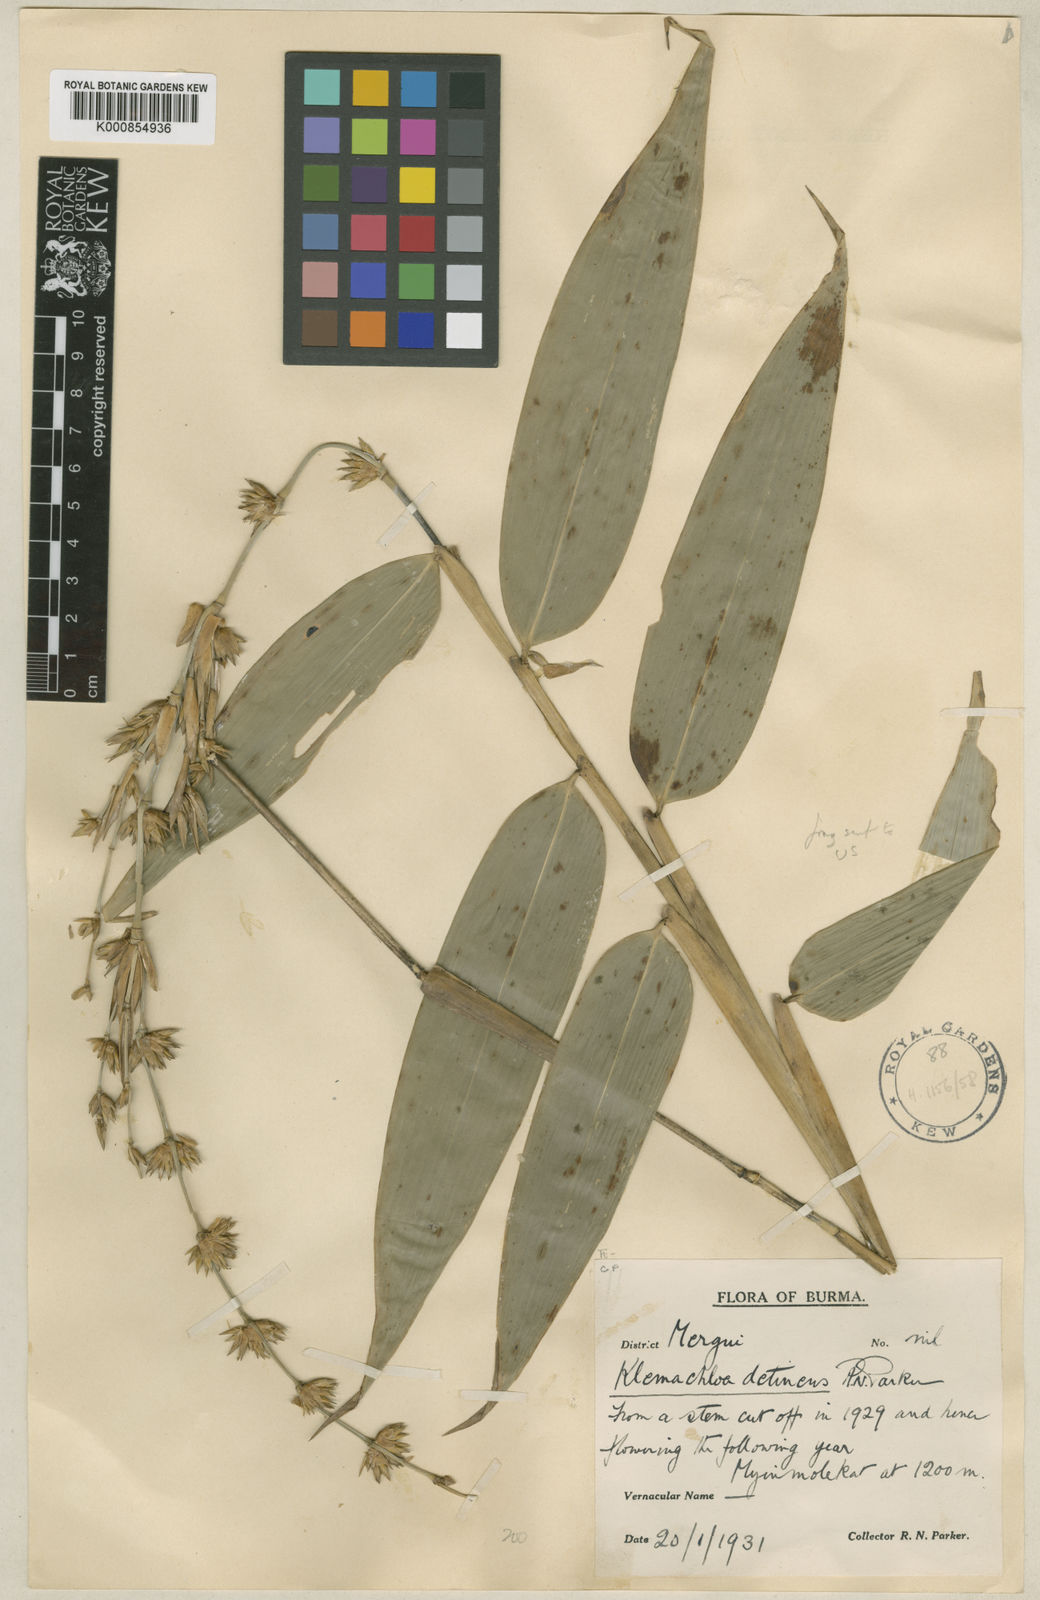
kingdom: Plantae
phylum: Tracheophyta
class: Liliopsida
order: Poales
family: Poaceae
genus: Dendrocalamus
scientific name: Dendrocalamus detinens
